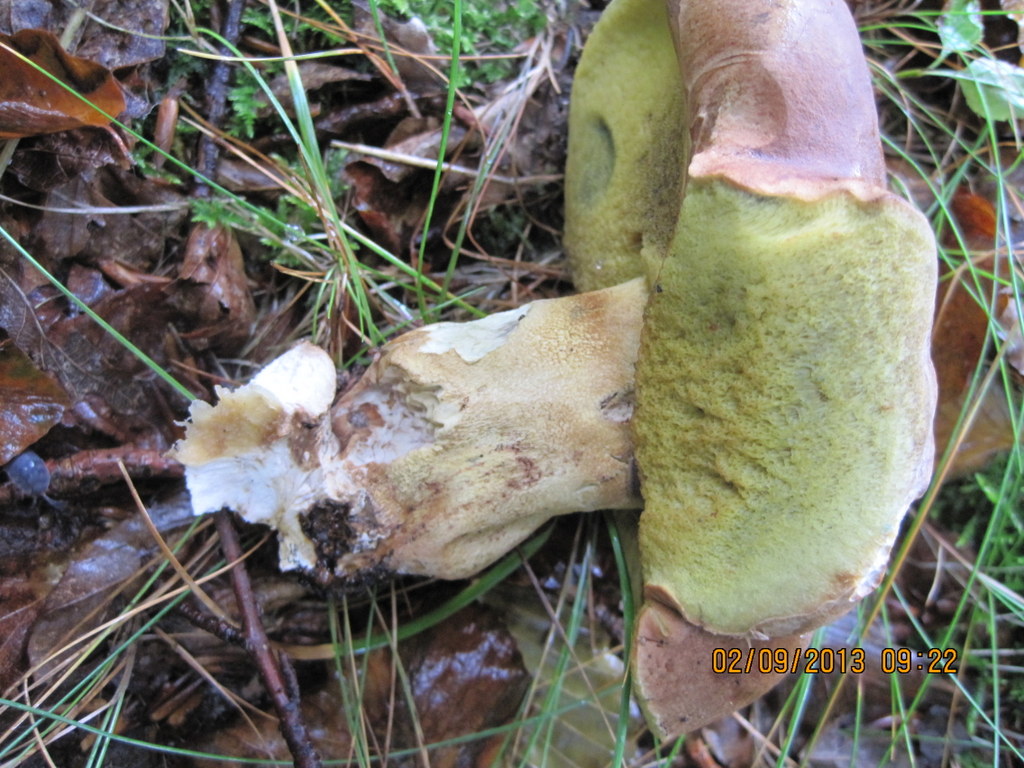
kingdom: Fungi
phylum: Basidiomycota
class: Agaricomycetes
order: Boletales
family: Boletaceae
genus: Butyriboletus
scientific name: Butyriboletus appendiculatus
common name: tenstokket rørhat
